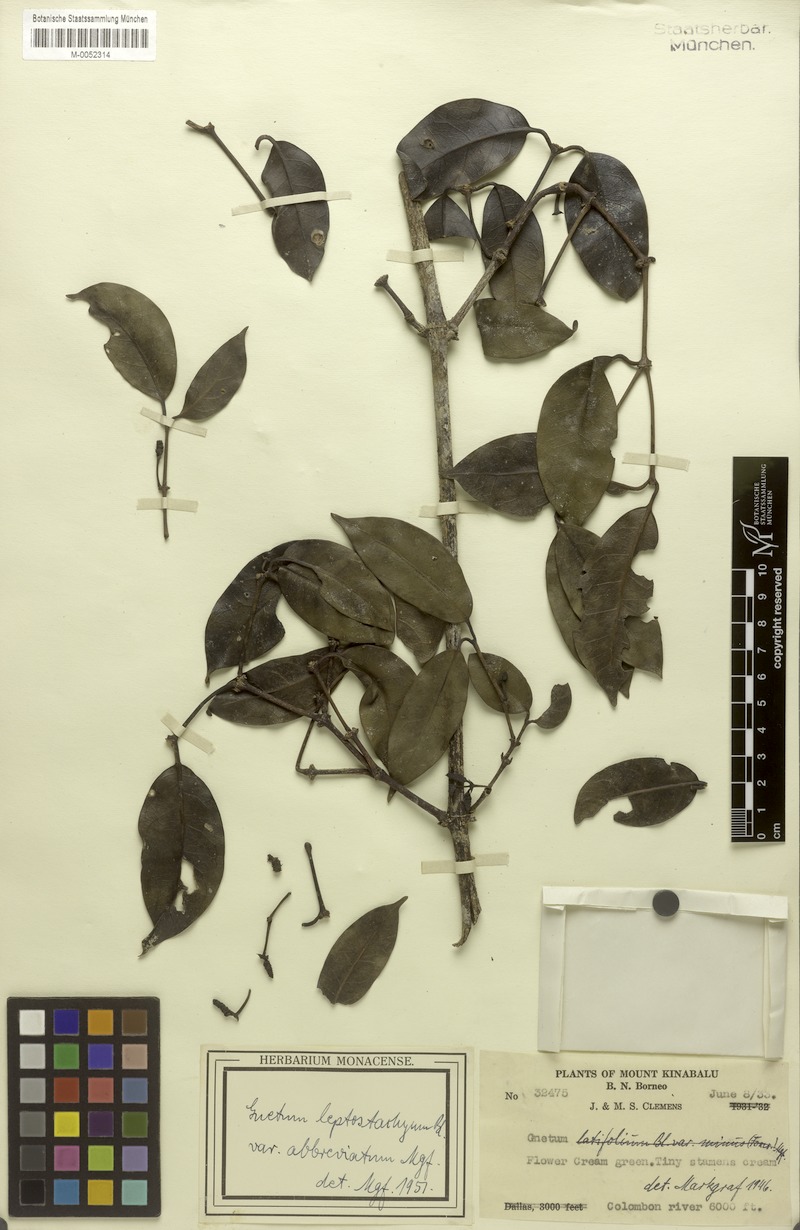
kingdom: Plantae
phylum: Tracheophyta
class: Gnetopsida
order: Gnetales
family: Gnetaceae
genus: Gnetum
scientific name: Gnetum leptostachyum
